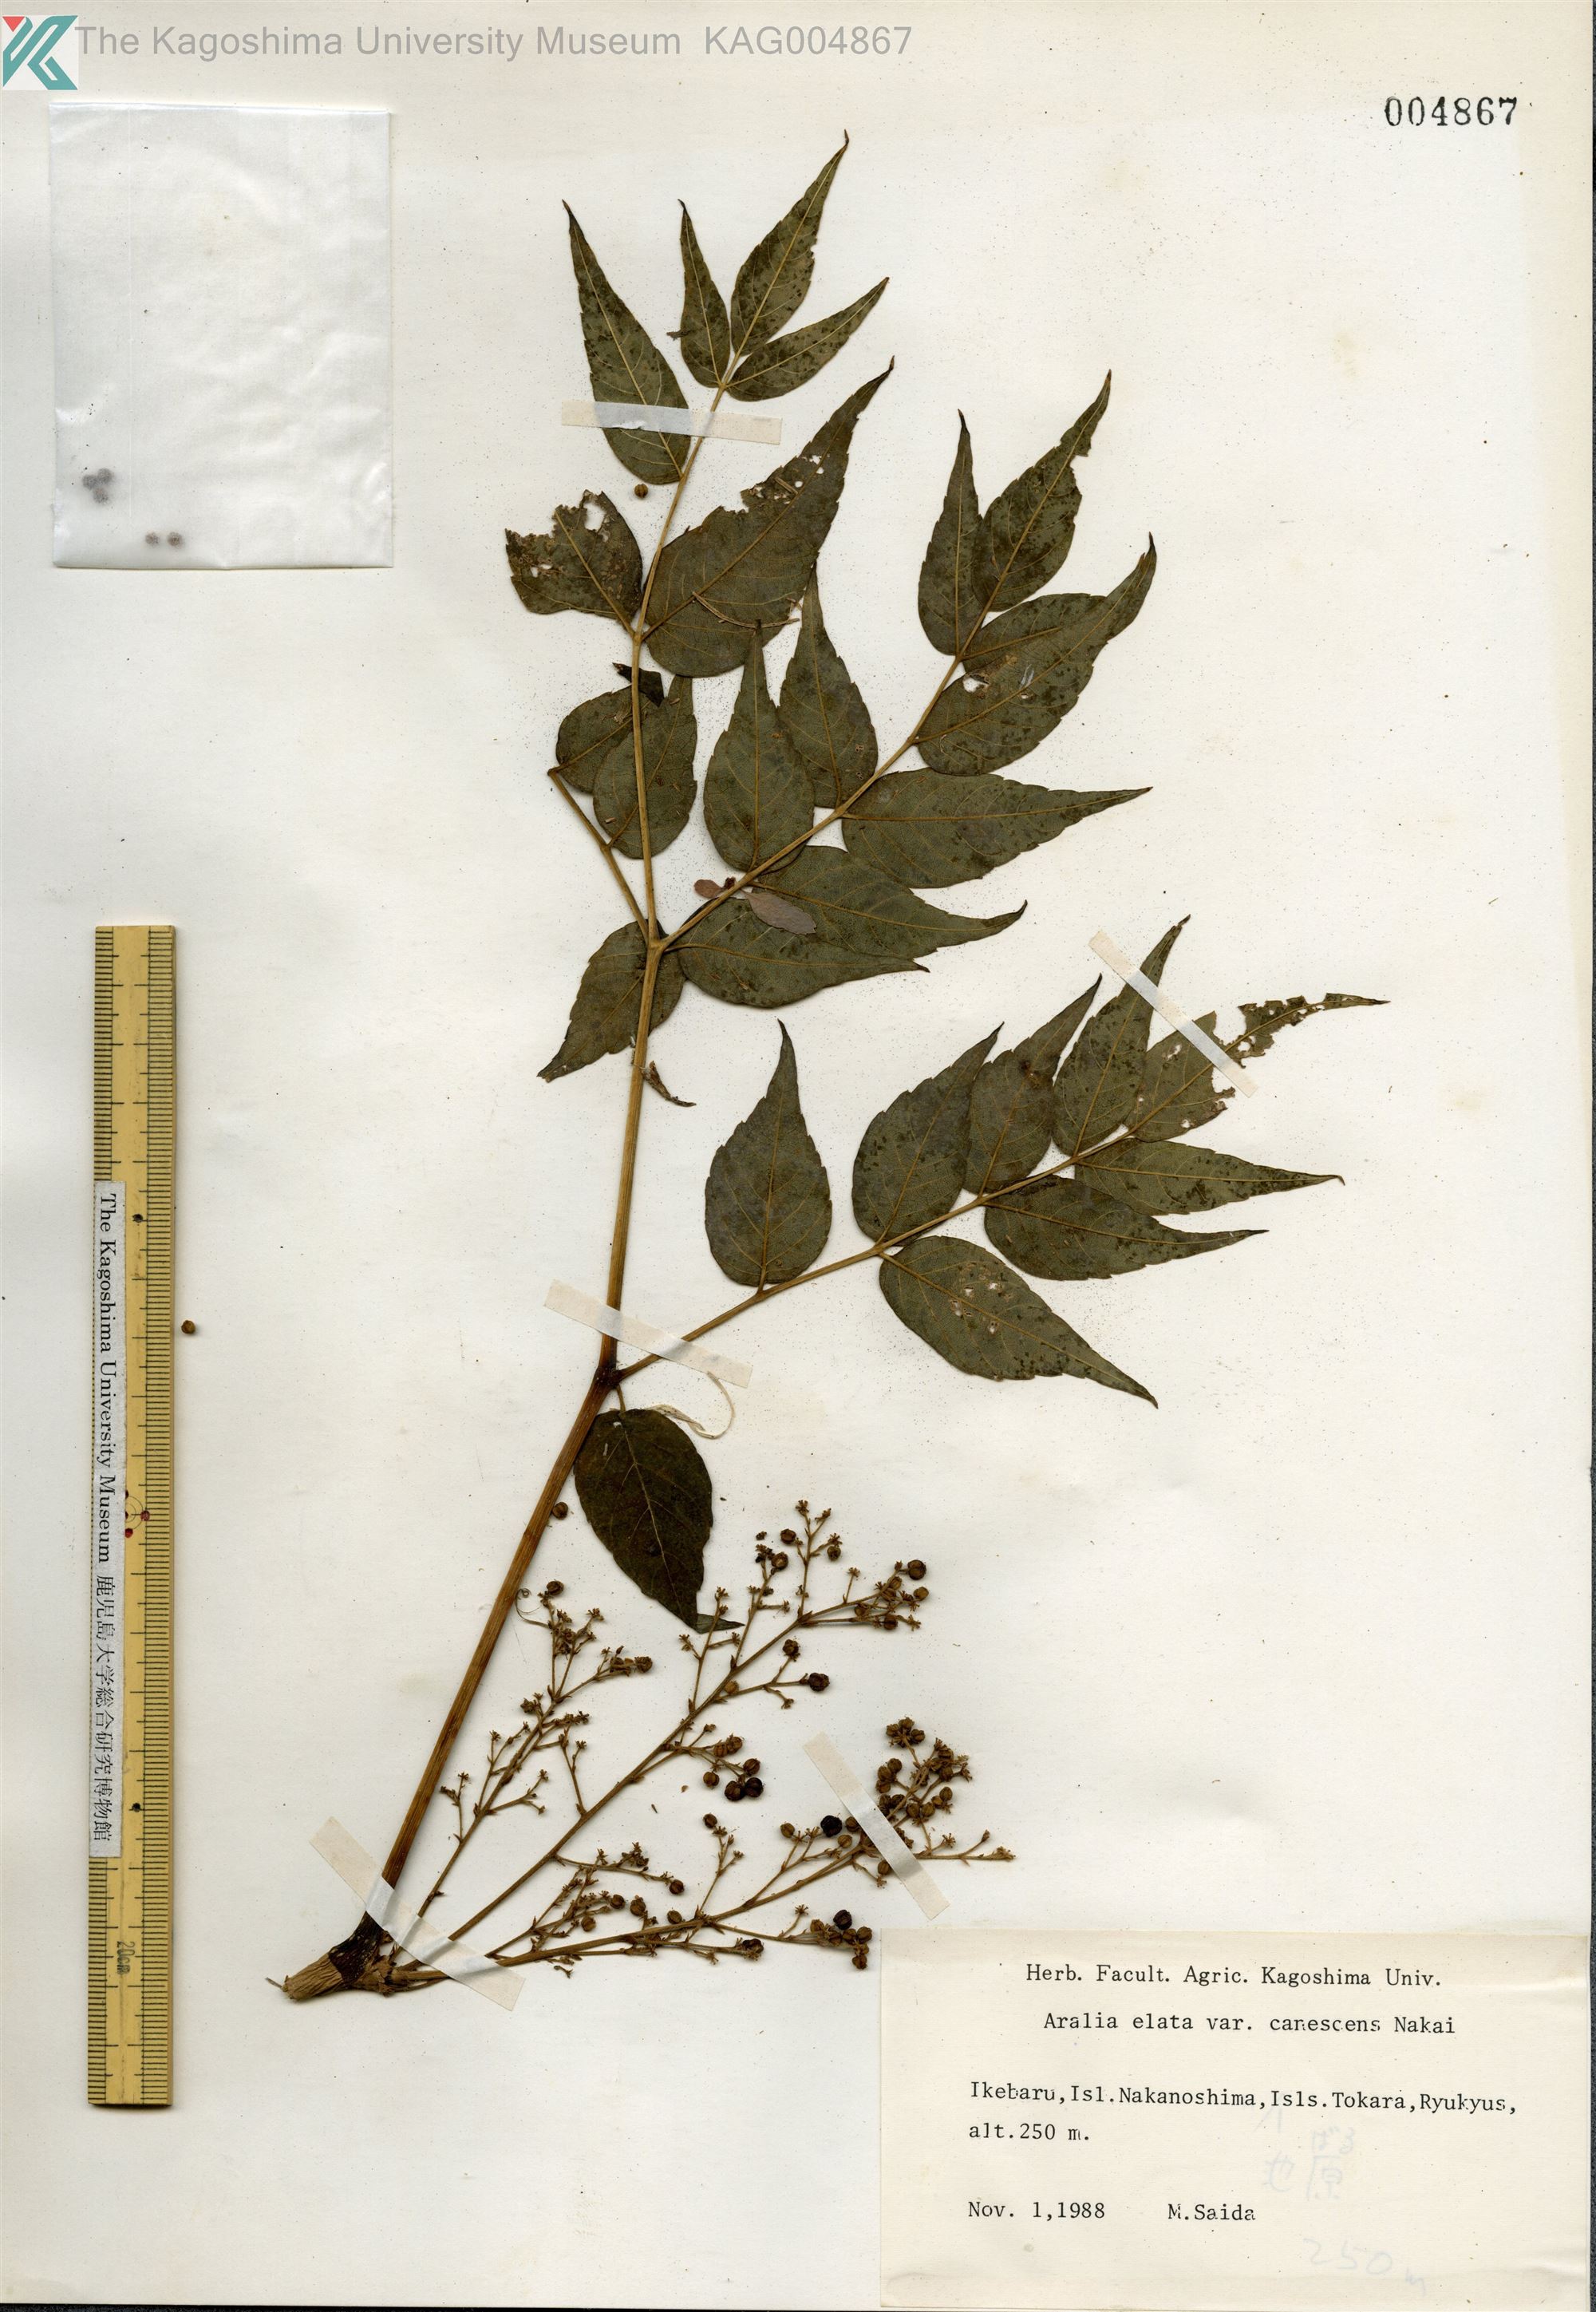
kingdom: Plantae
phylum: Tracheophyta
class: Magnoliopsida
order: Apiales
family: Araliaceae
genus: Aralia
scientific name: Aralia elata
